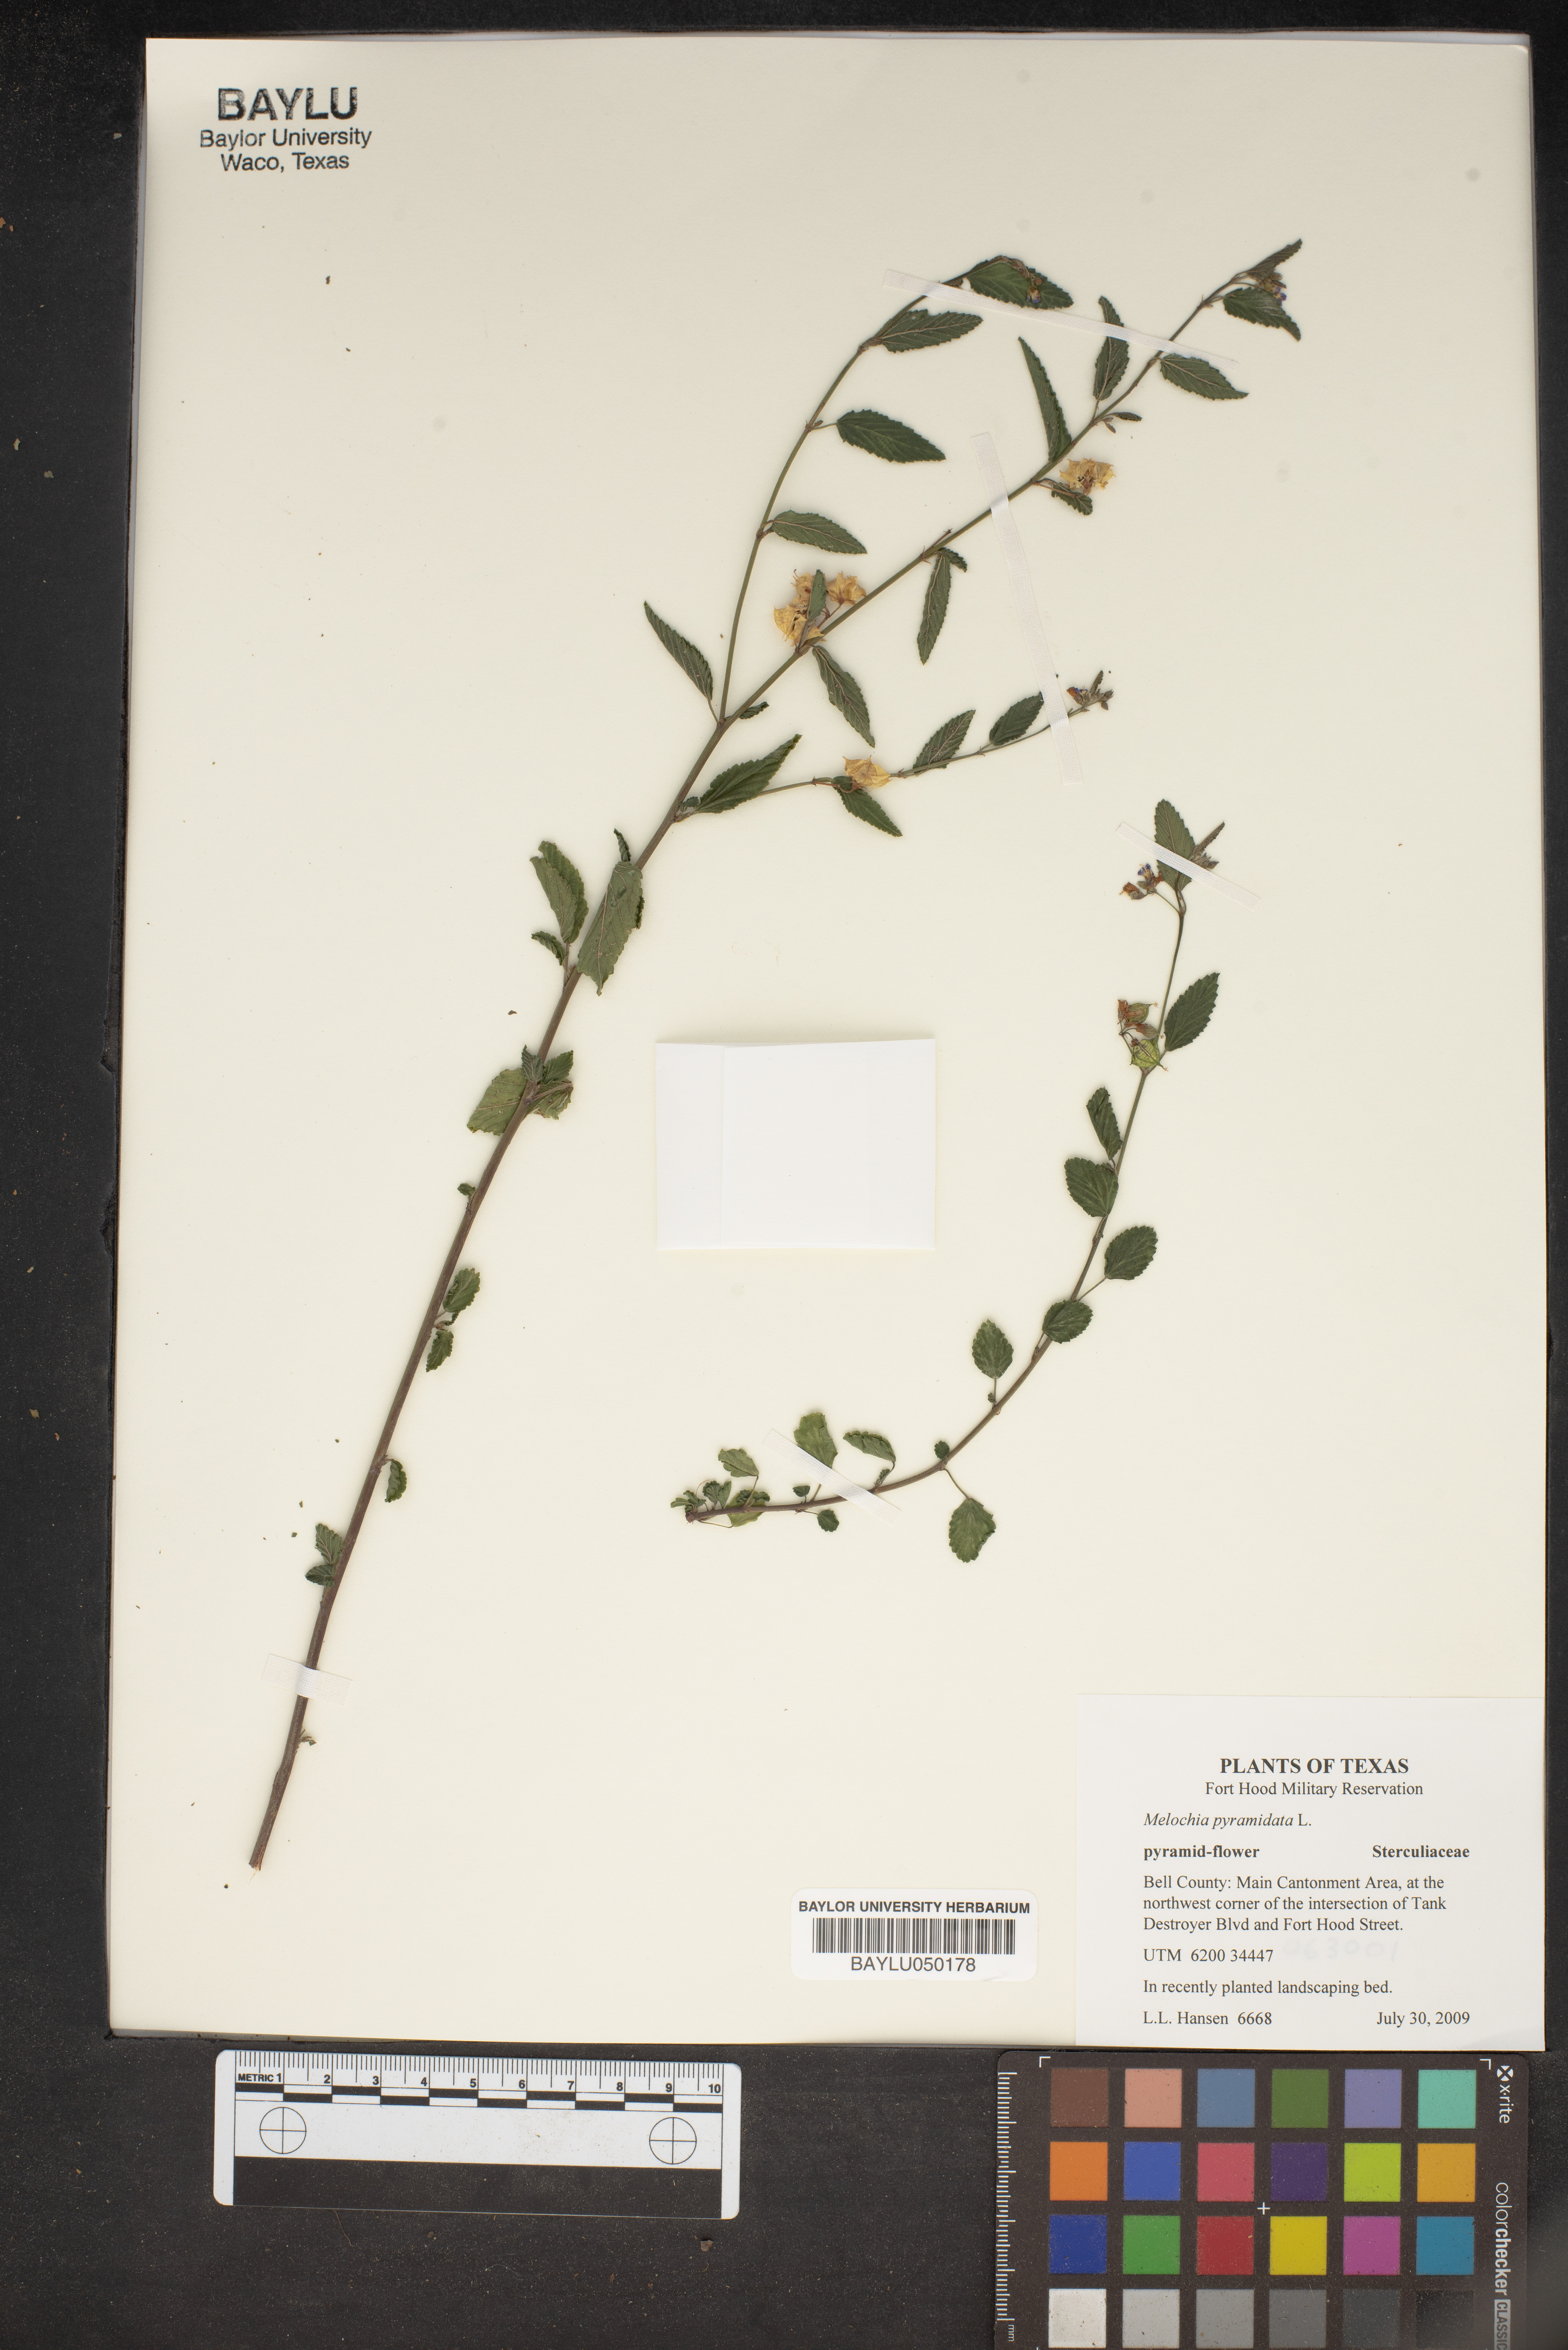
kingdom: Plantae
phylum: Tracheophyta
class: Magnoliopsida
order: Malvales
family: Malvaceae
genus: Melochia
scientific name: Melochia pyramidata
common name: Pyramidflower
